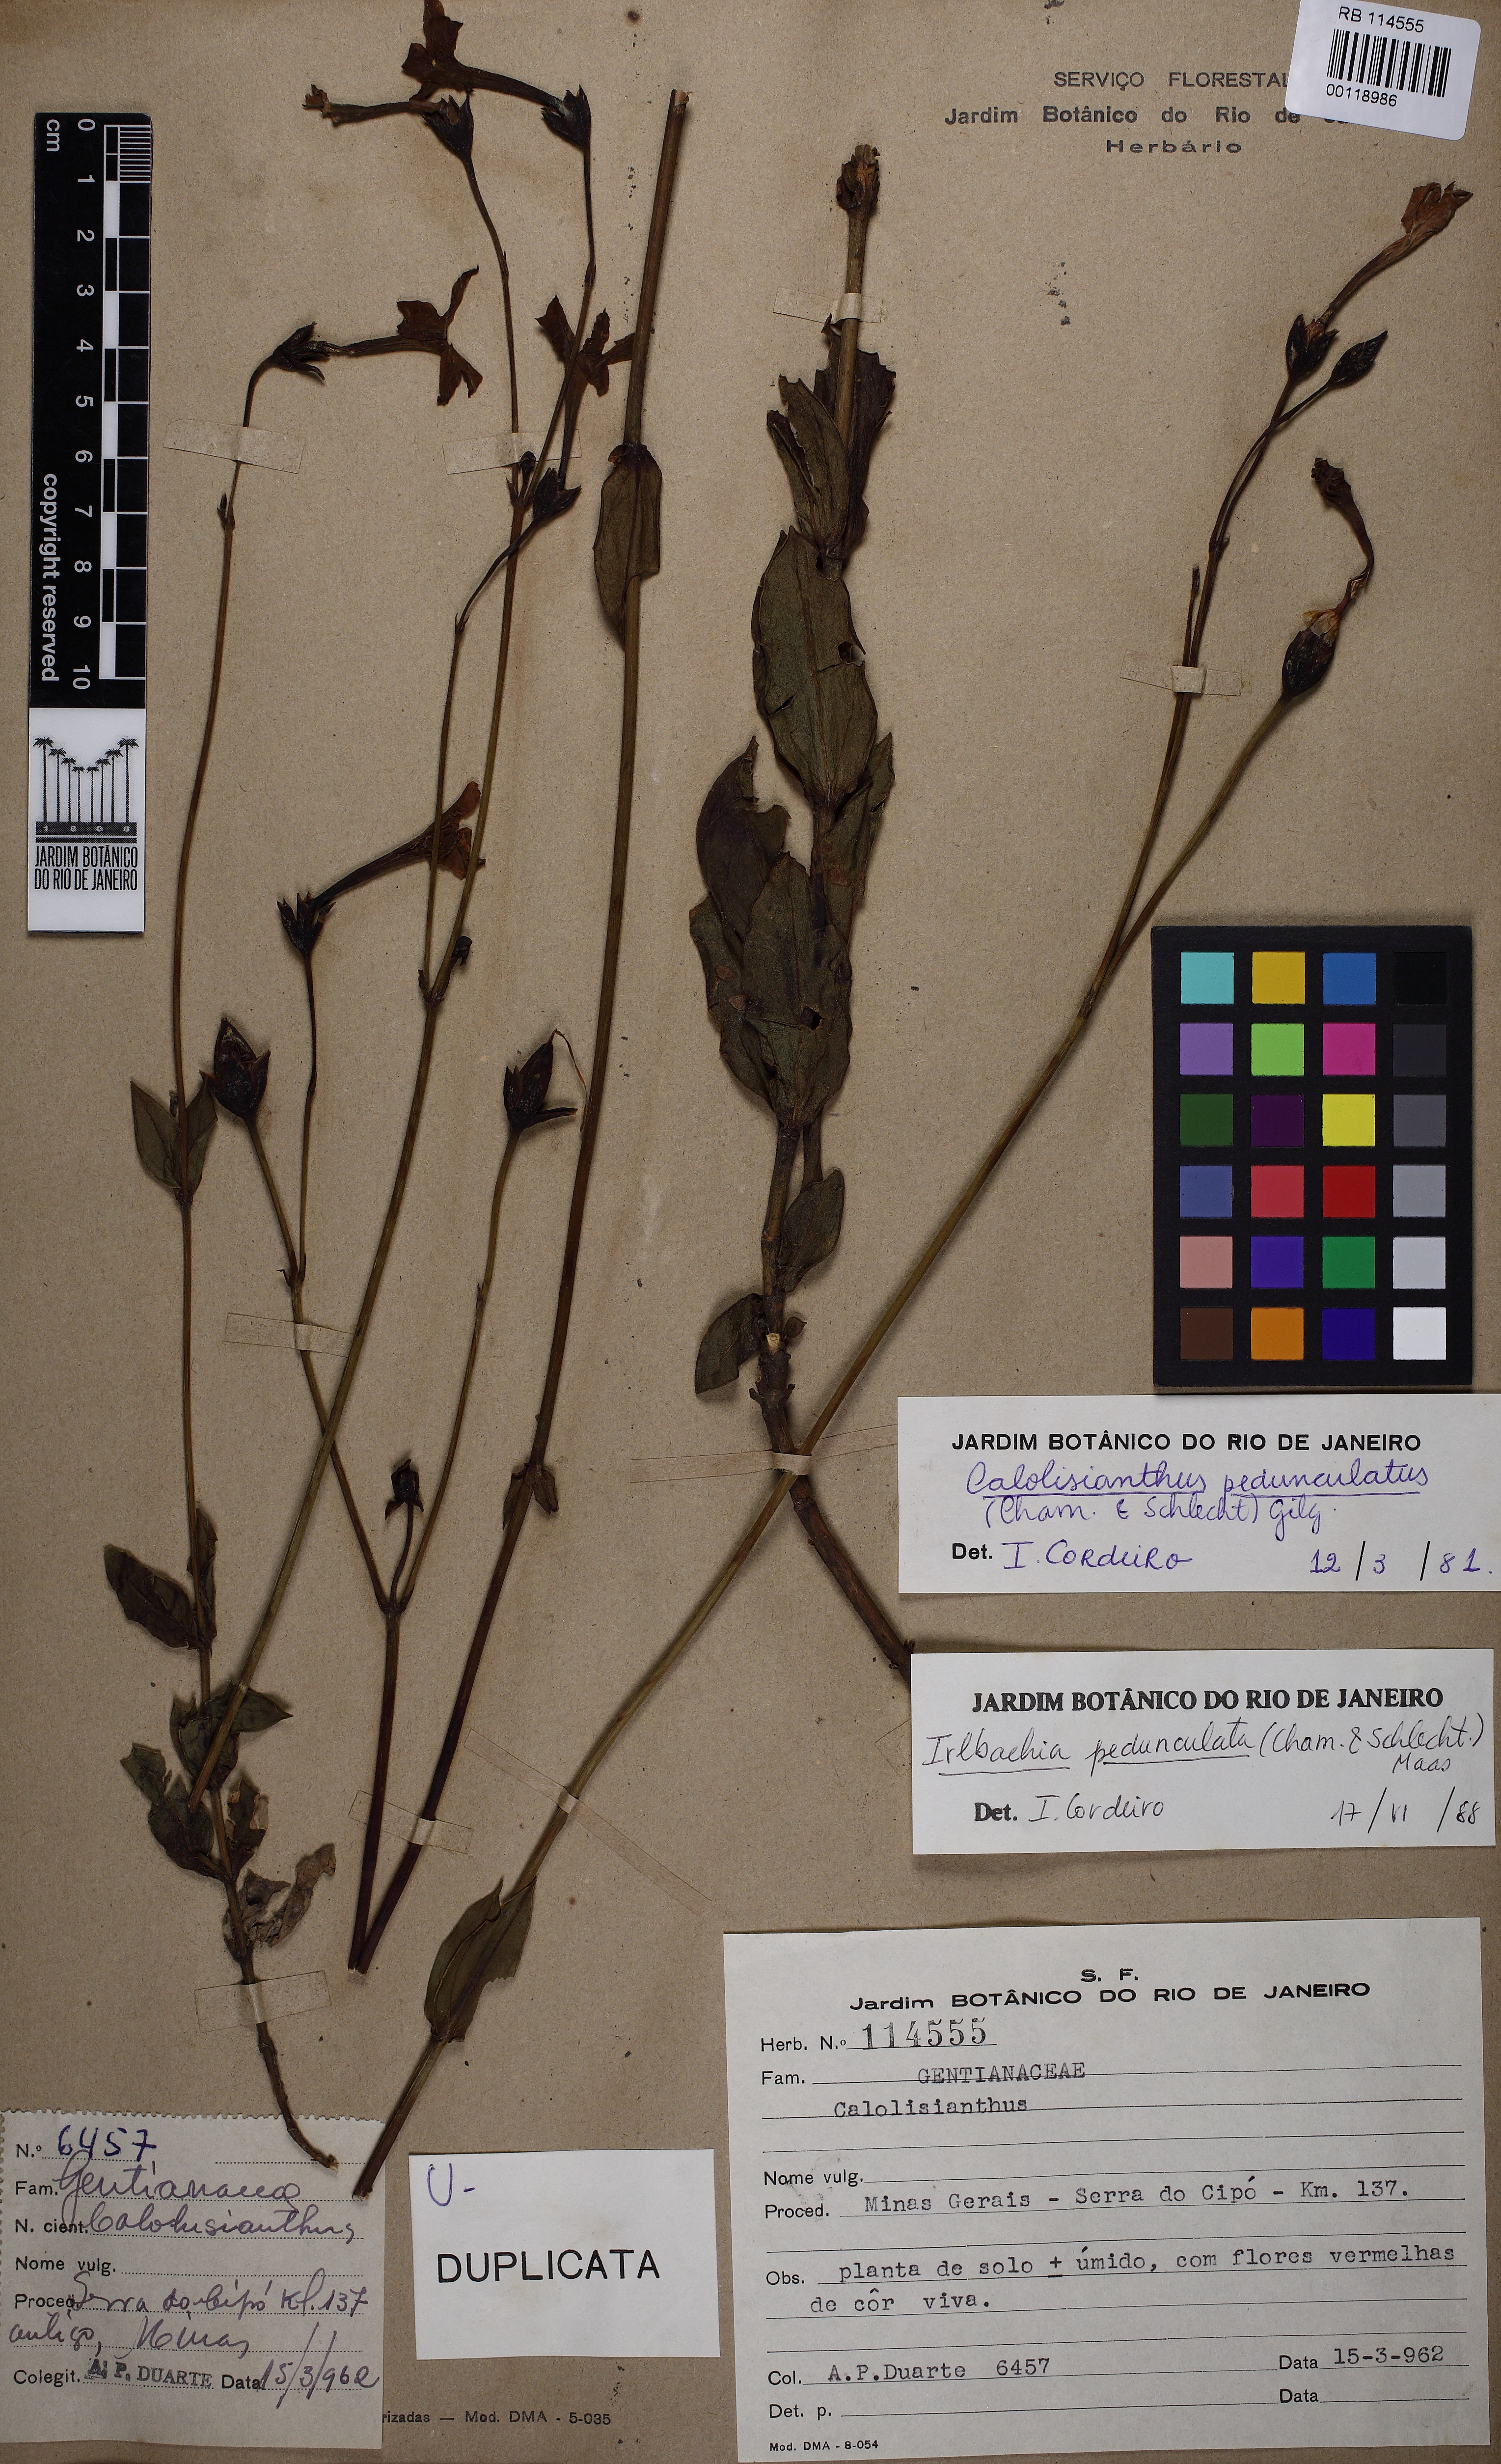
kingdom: Plantae
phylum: Tracheophyta
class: Magnoliopsida
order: Gentianales
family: Gentianaceae
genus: Calolisianthus
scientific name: Calolisianthus pedunculatus
